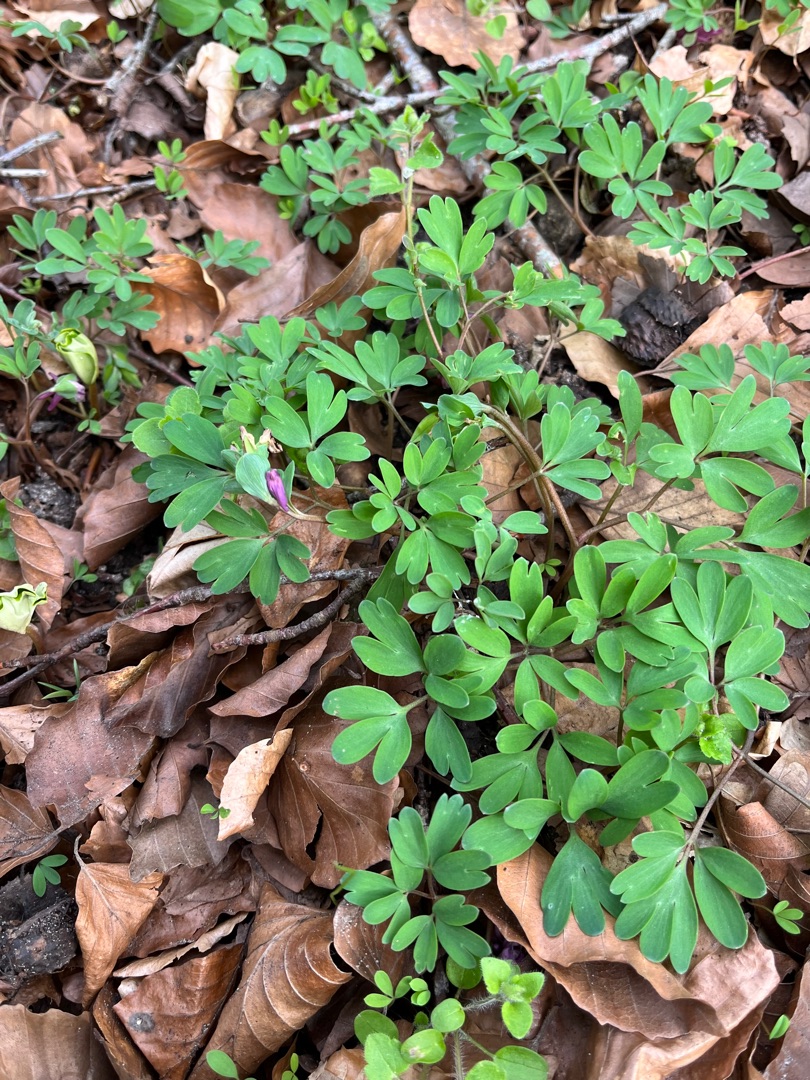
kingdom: Plantae
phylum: Tracheophyta
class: Magnoliopsida
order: Ranunculales
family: Papaveraceae
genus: Corydalis
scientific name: Corydalis intermedia
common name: Liden lærkespore
